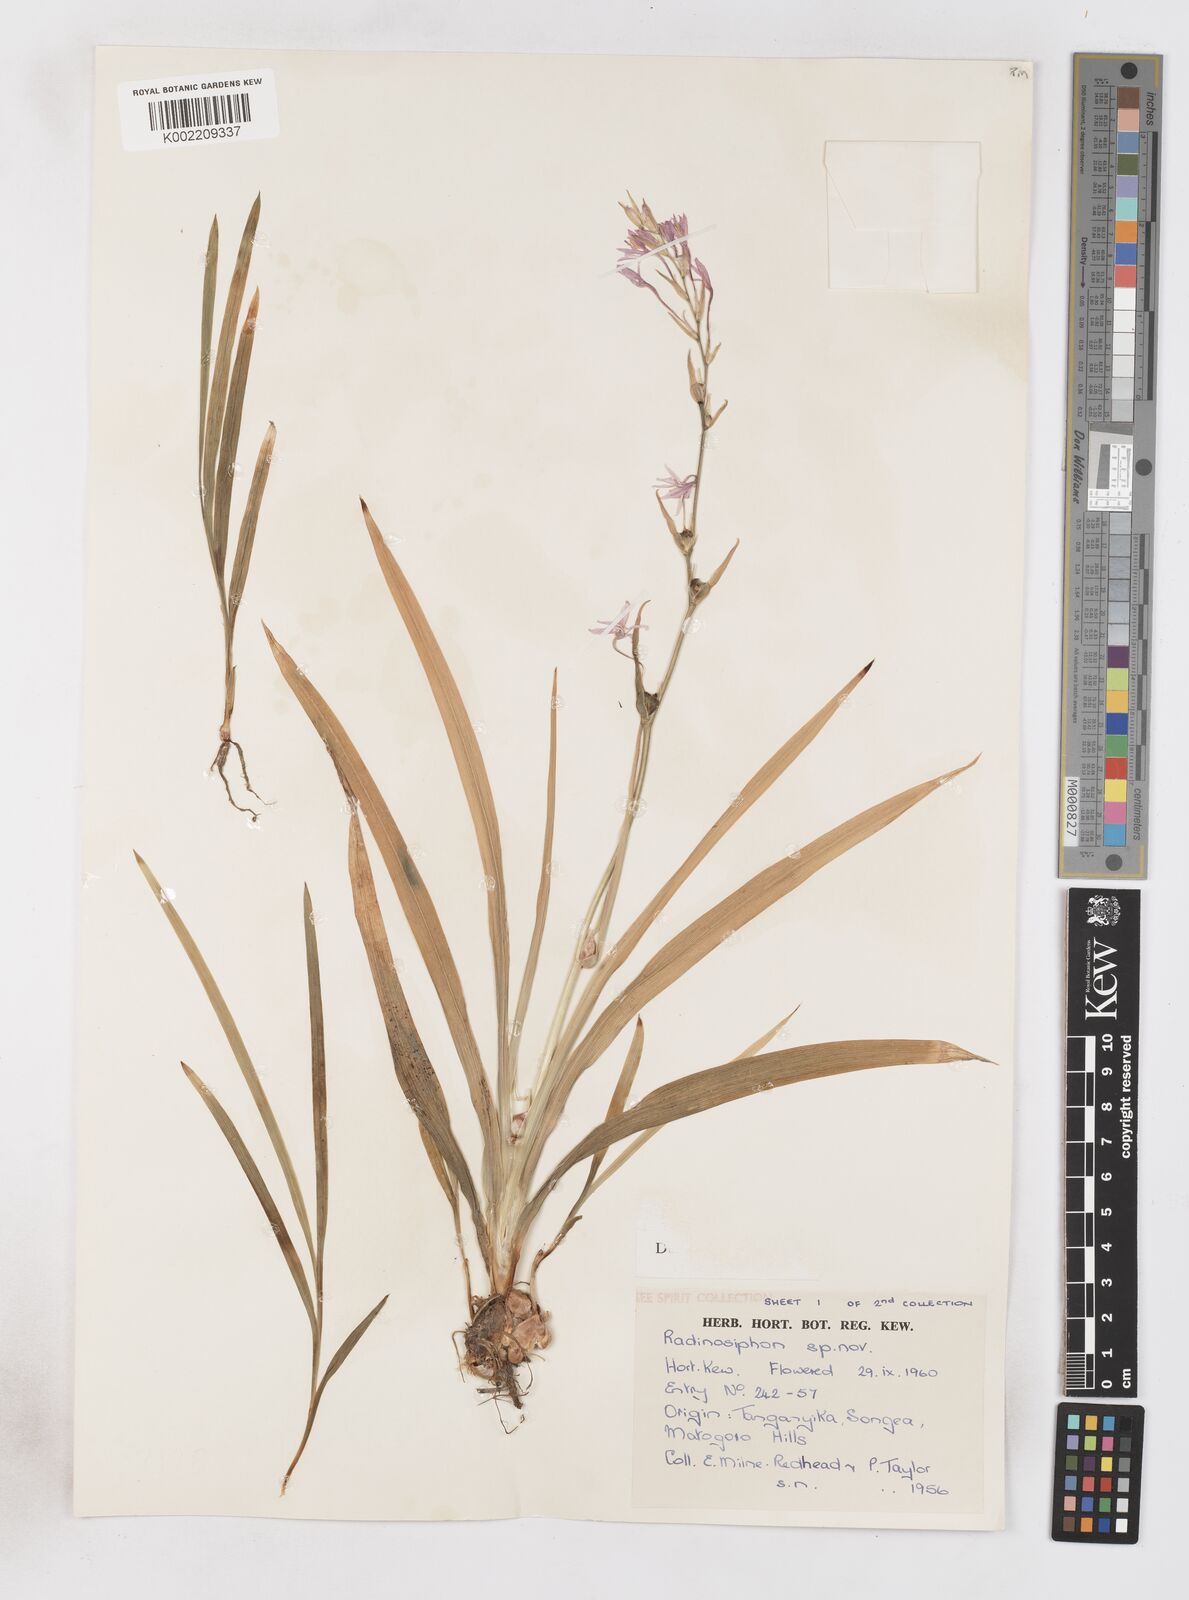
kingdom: Plantae
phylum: Tracheophyta
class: Liliopsida
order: Asparagales
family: Iridaceae
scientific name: Iridaceae
